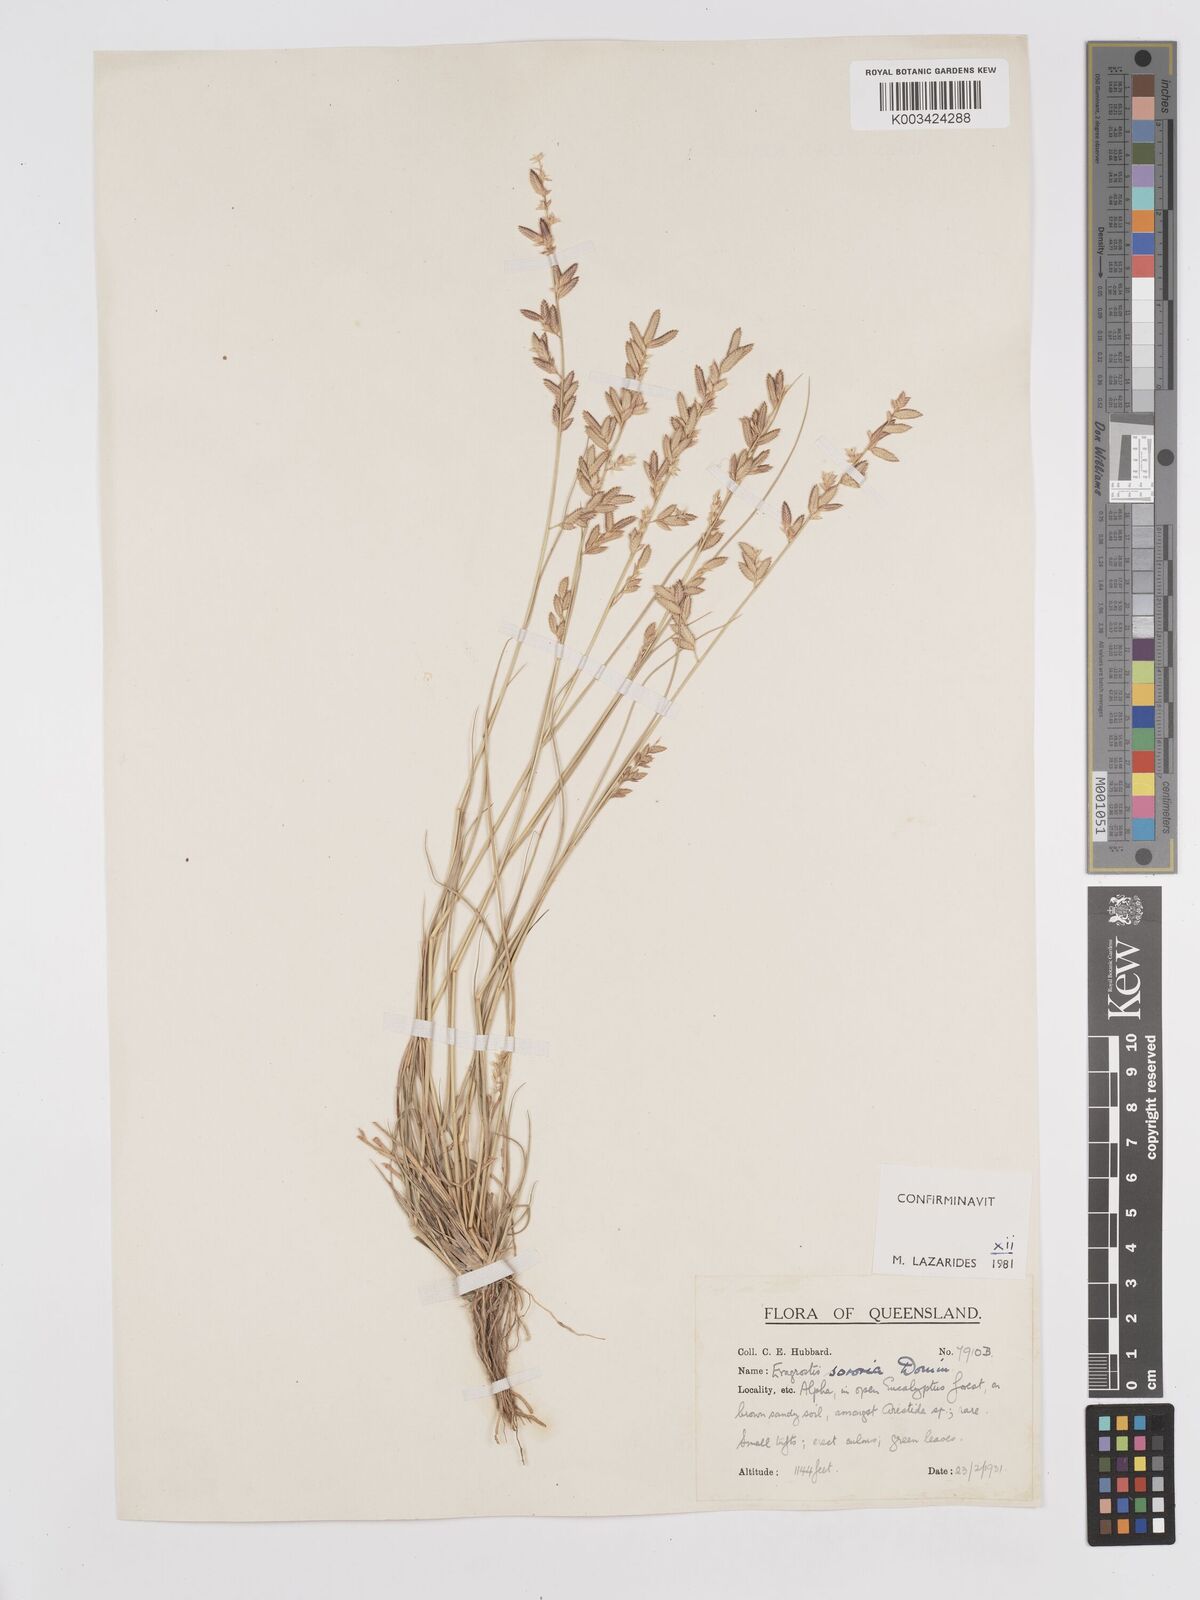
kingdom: Plantae
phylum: Tracheophyta
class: Liliopsida
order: Poales
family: Poaceae
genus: Eragrostis
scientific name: Eragrostis sororia
